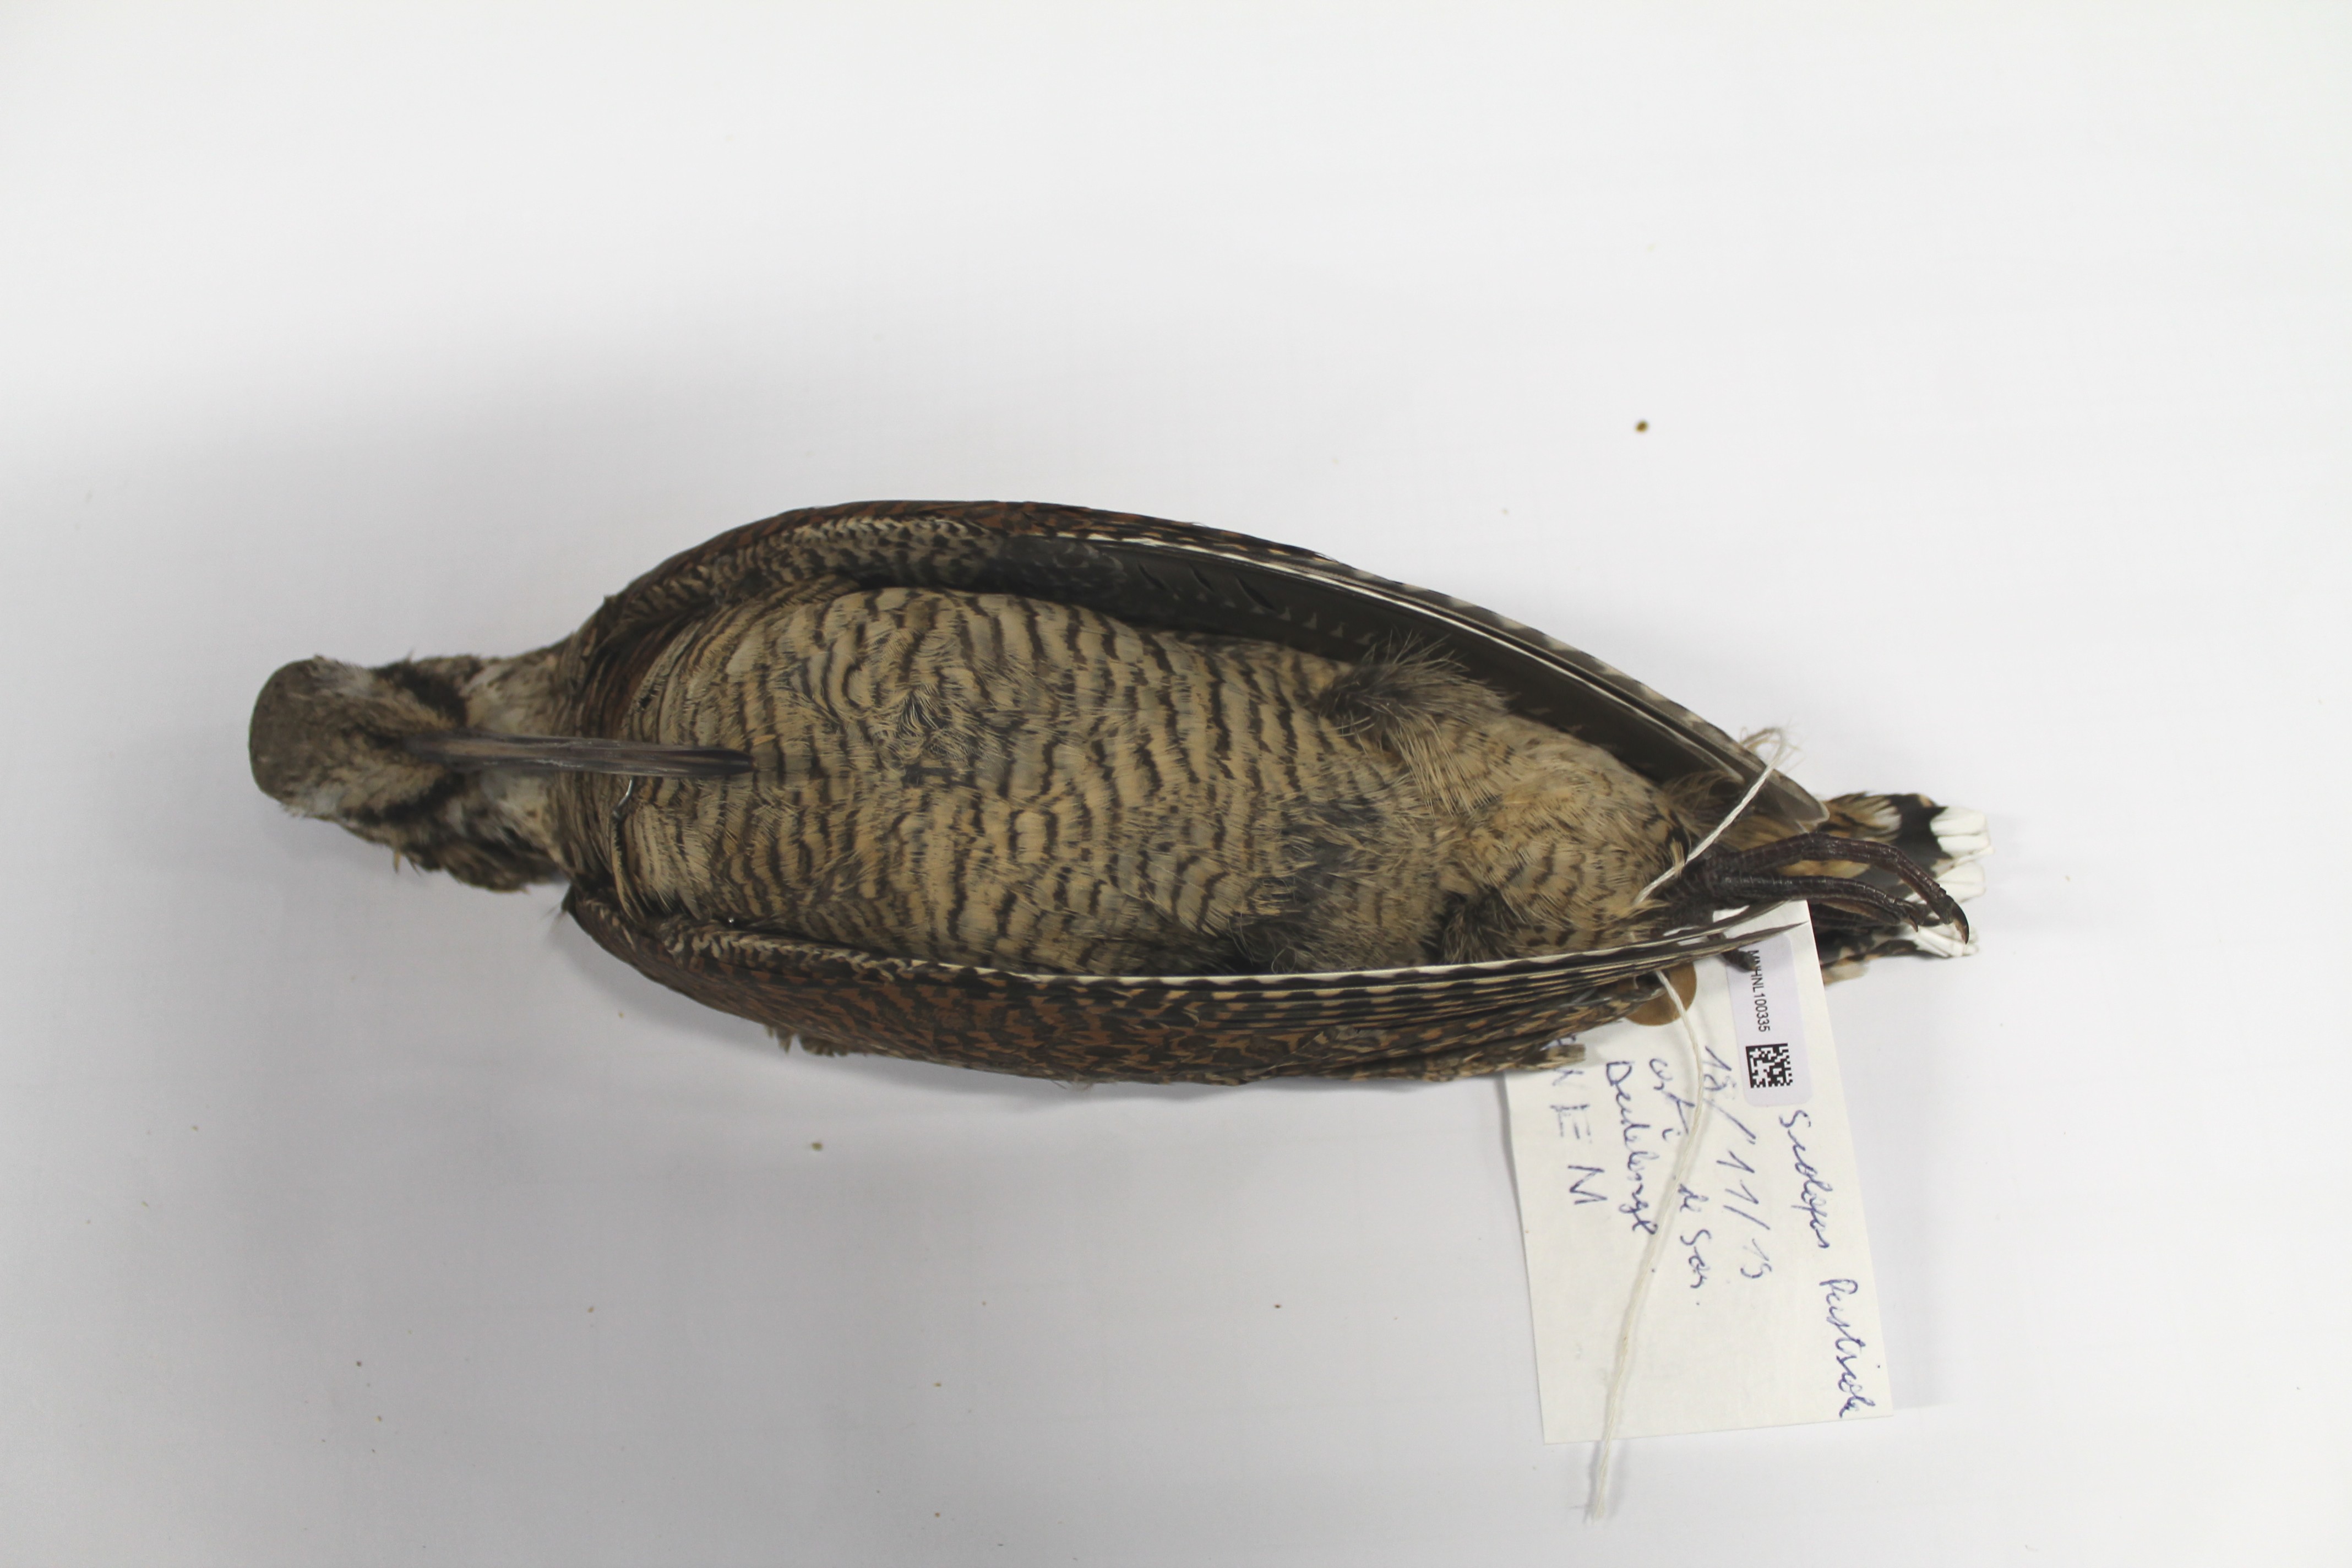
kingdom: Animalia
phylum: Chordata
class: Aves
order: Charadriiformes
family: Scolopacidae
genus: Scolopax
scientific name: Scolopax rusticola
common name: Eurasian woodcock
